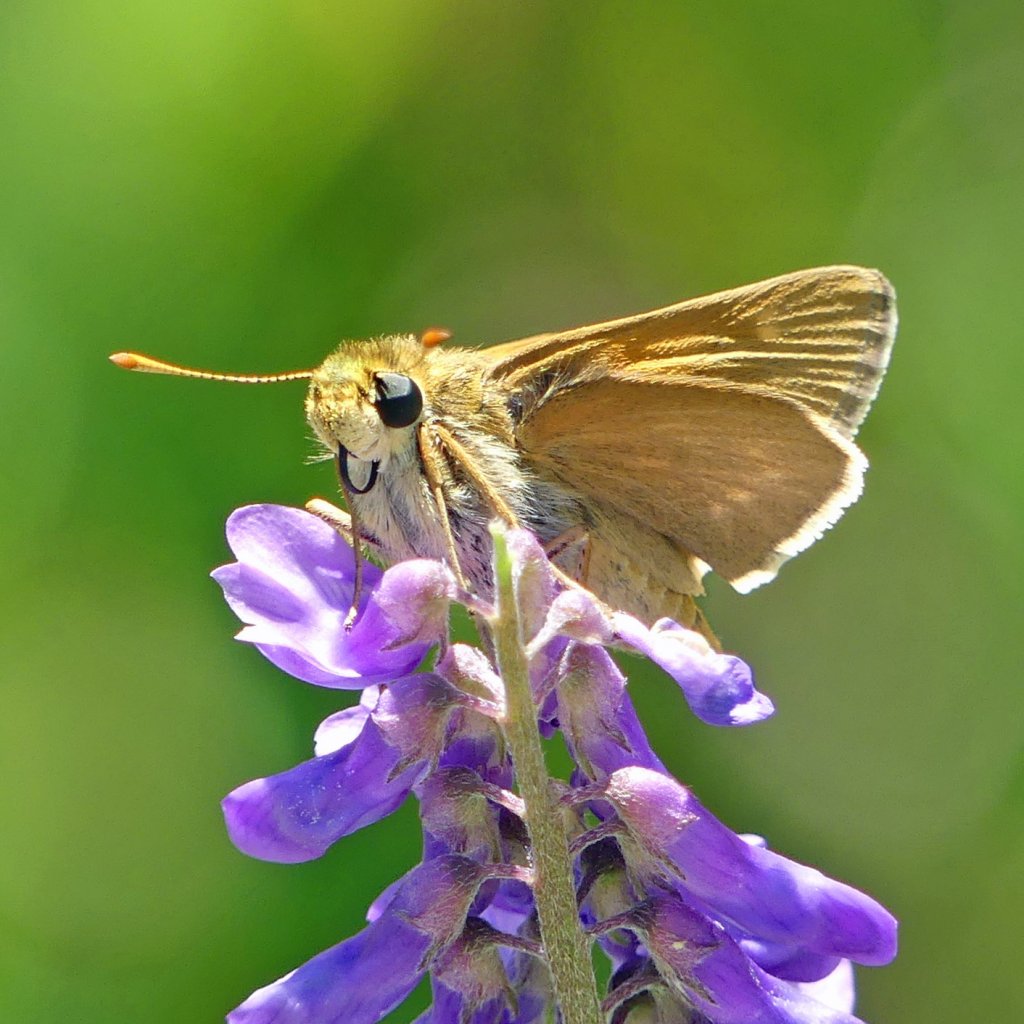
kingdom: Animalia
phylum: Arthropoda
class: Insecta
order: Lepidoptera
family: Hesperiidae
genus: Polites
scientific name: Polites
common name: Crossline Skipper
